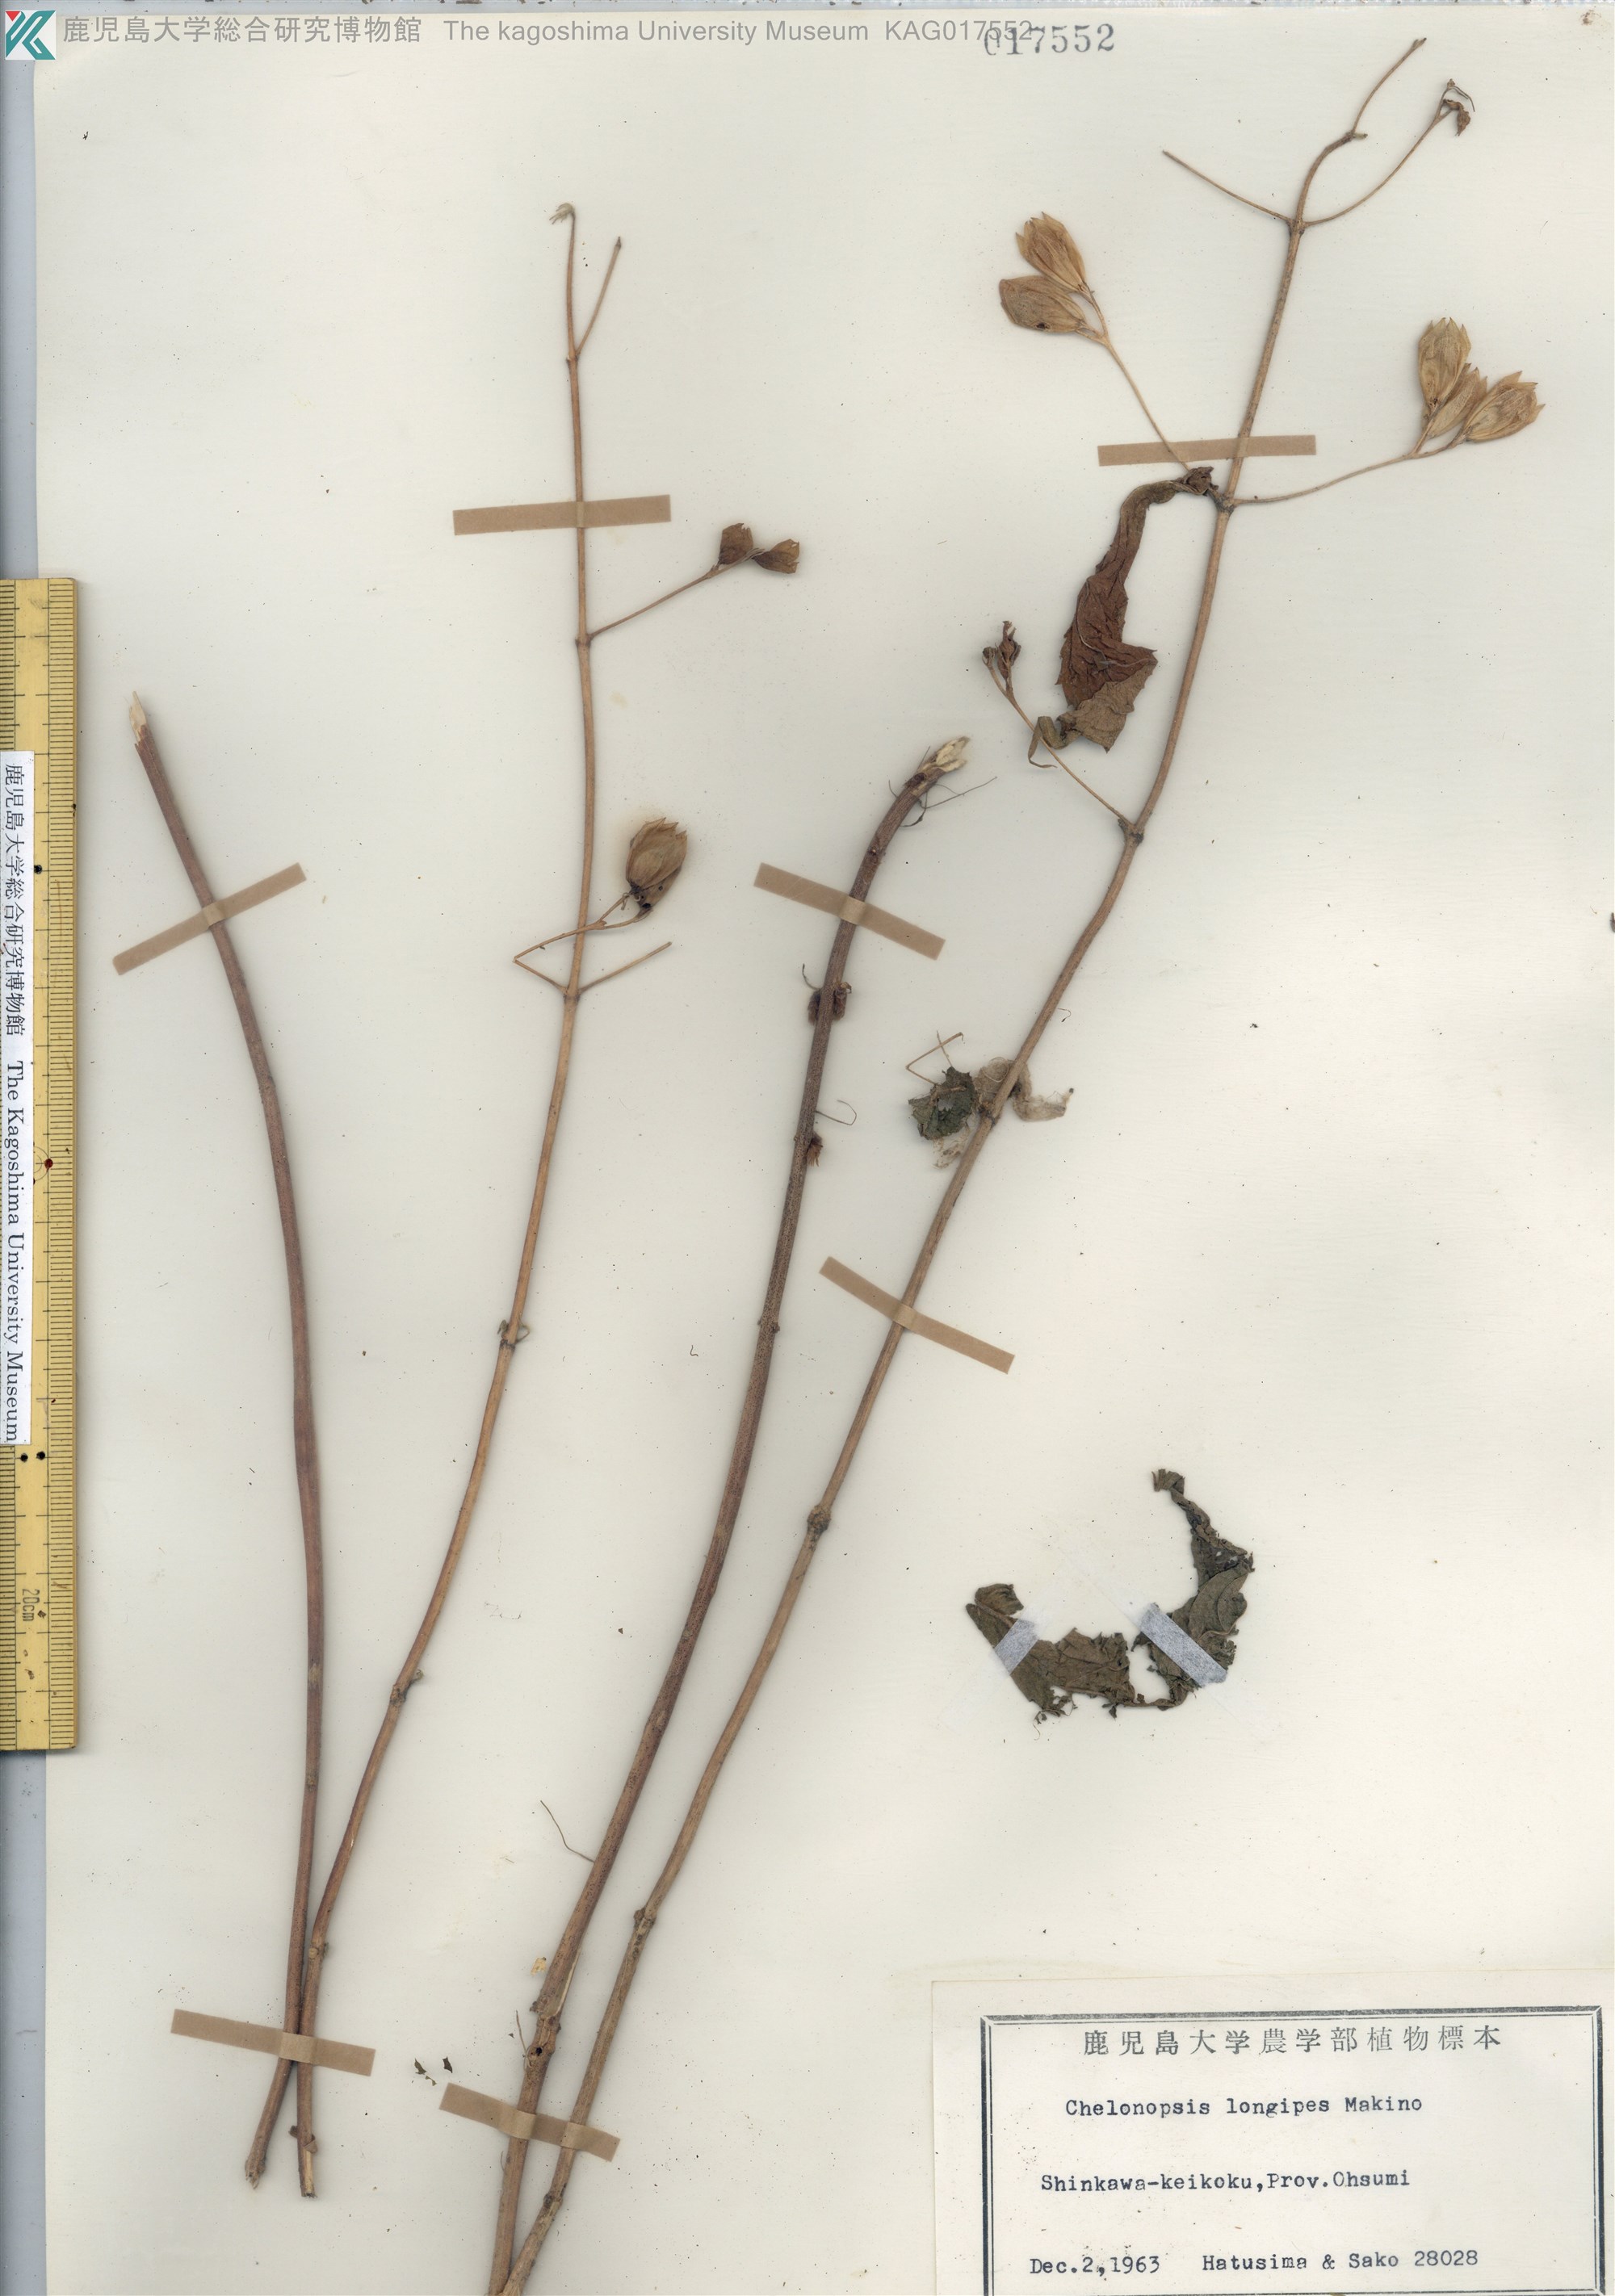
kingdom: Plantae
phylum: Tracheophyta
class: Magnoliopsida
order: Lamiales
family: Lamiaceae
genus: Chelonopsis
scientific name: Chelonopsis longipes
